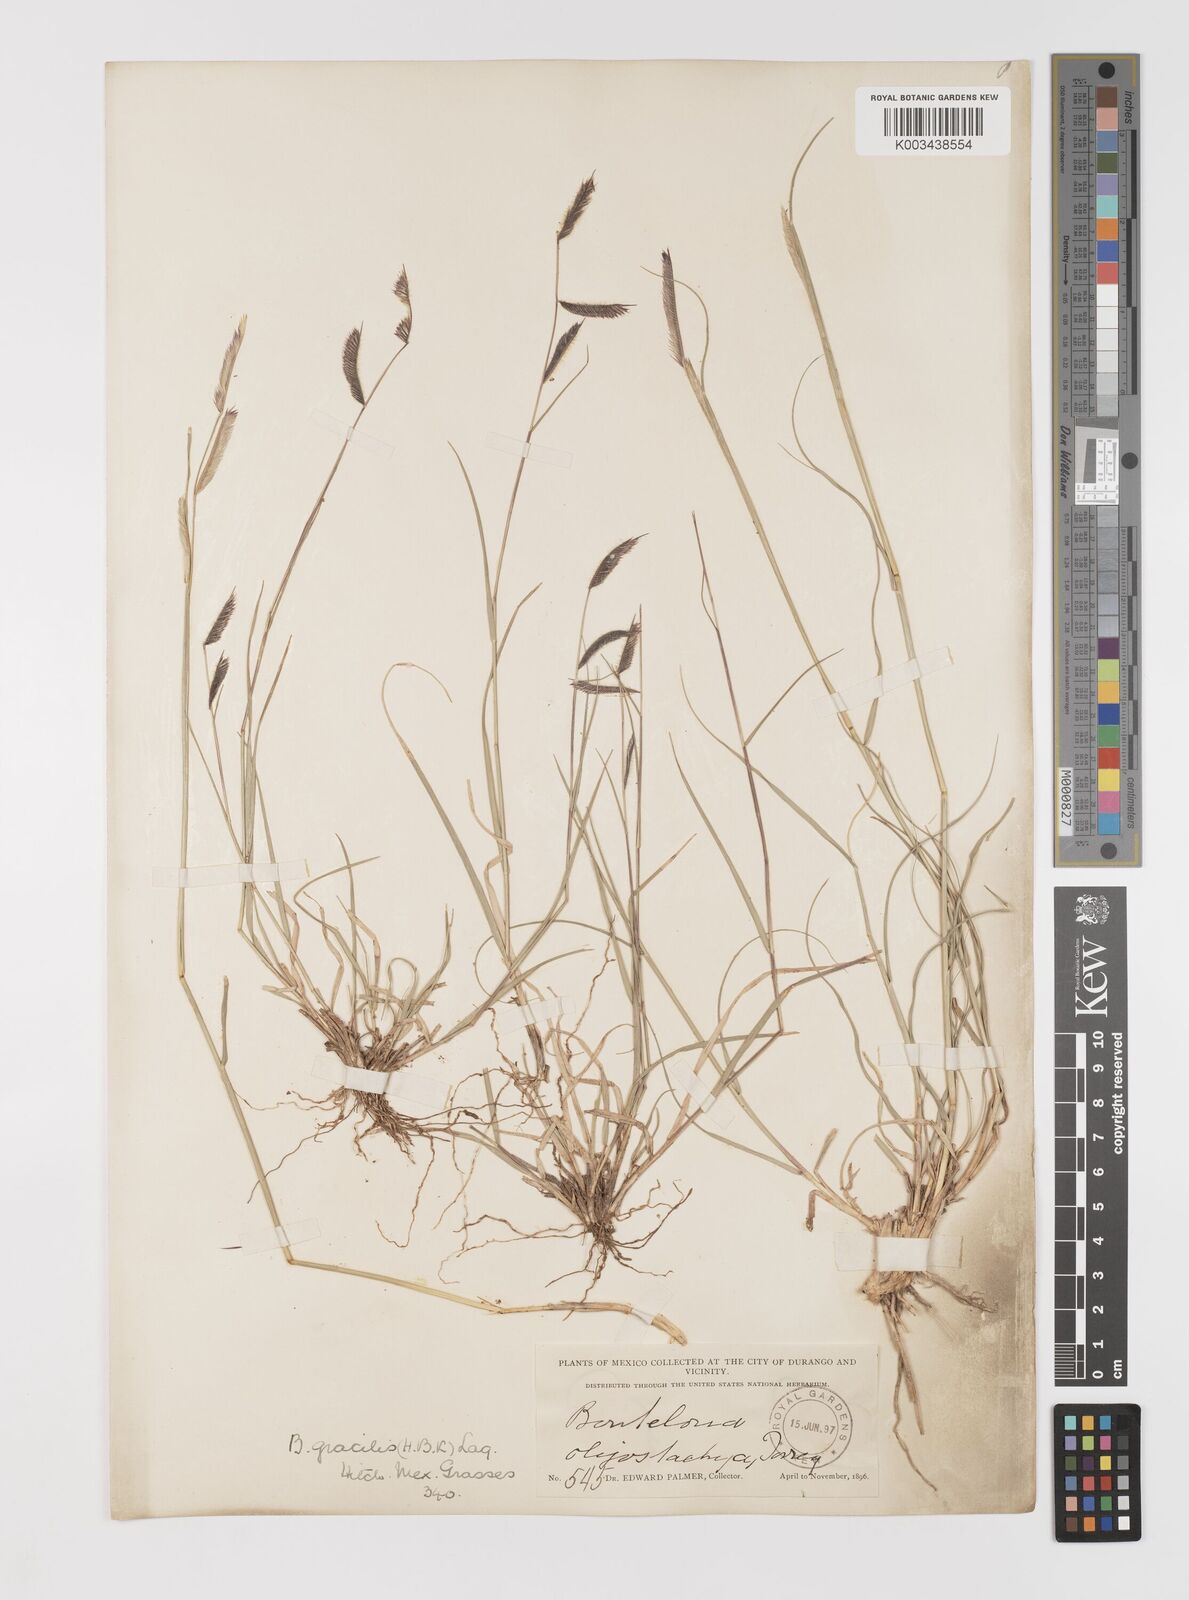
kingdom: Plantae
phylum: Tracheophyta
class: Liliopsida
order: Poales
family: Poaceae
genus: Bouteloua
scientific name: Bouteloua gracilis
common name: Blue grama
